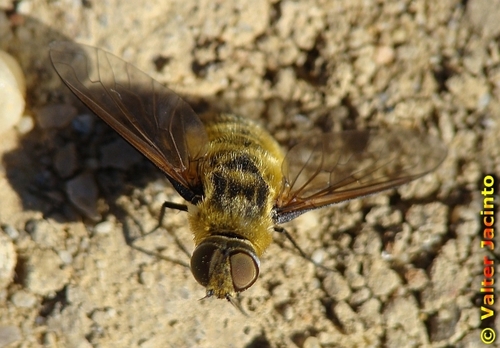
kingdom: Animalia
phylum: Arthropoda
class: Insecta
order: Diptera
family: Bombyliidae
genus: Villa
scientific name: Villa
